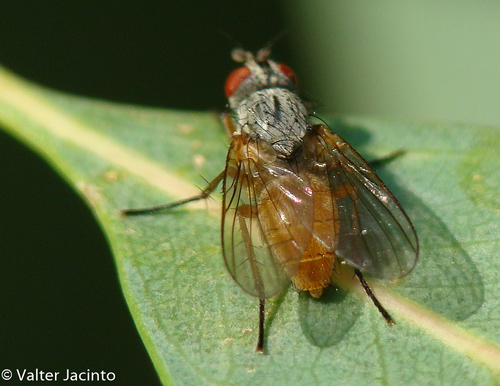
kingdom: Animalia
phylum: Arthropoda
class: Insecta
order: Diptera
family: Anthomyiidae
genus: Pegomya
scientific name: Pegomya bicolor
